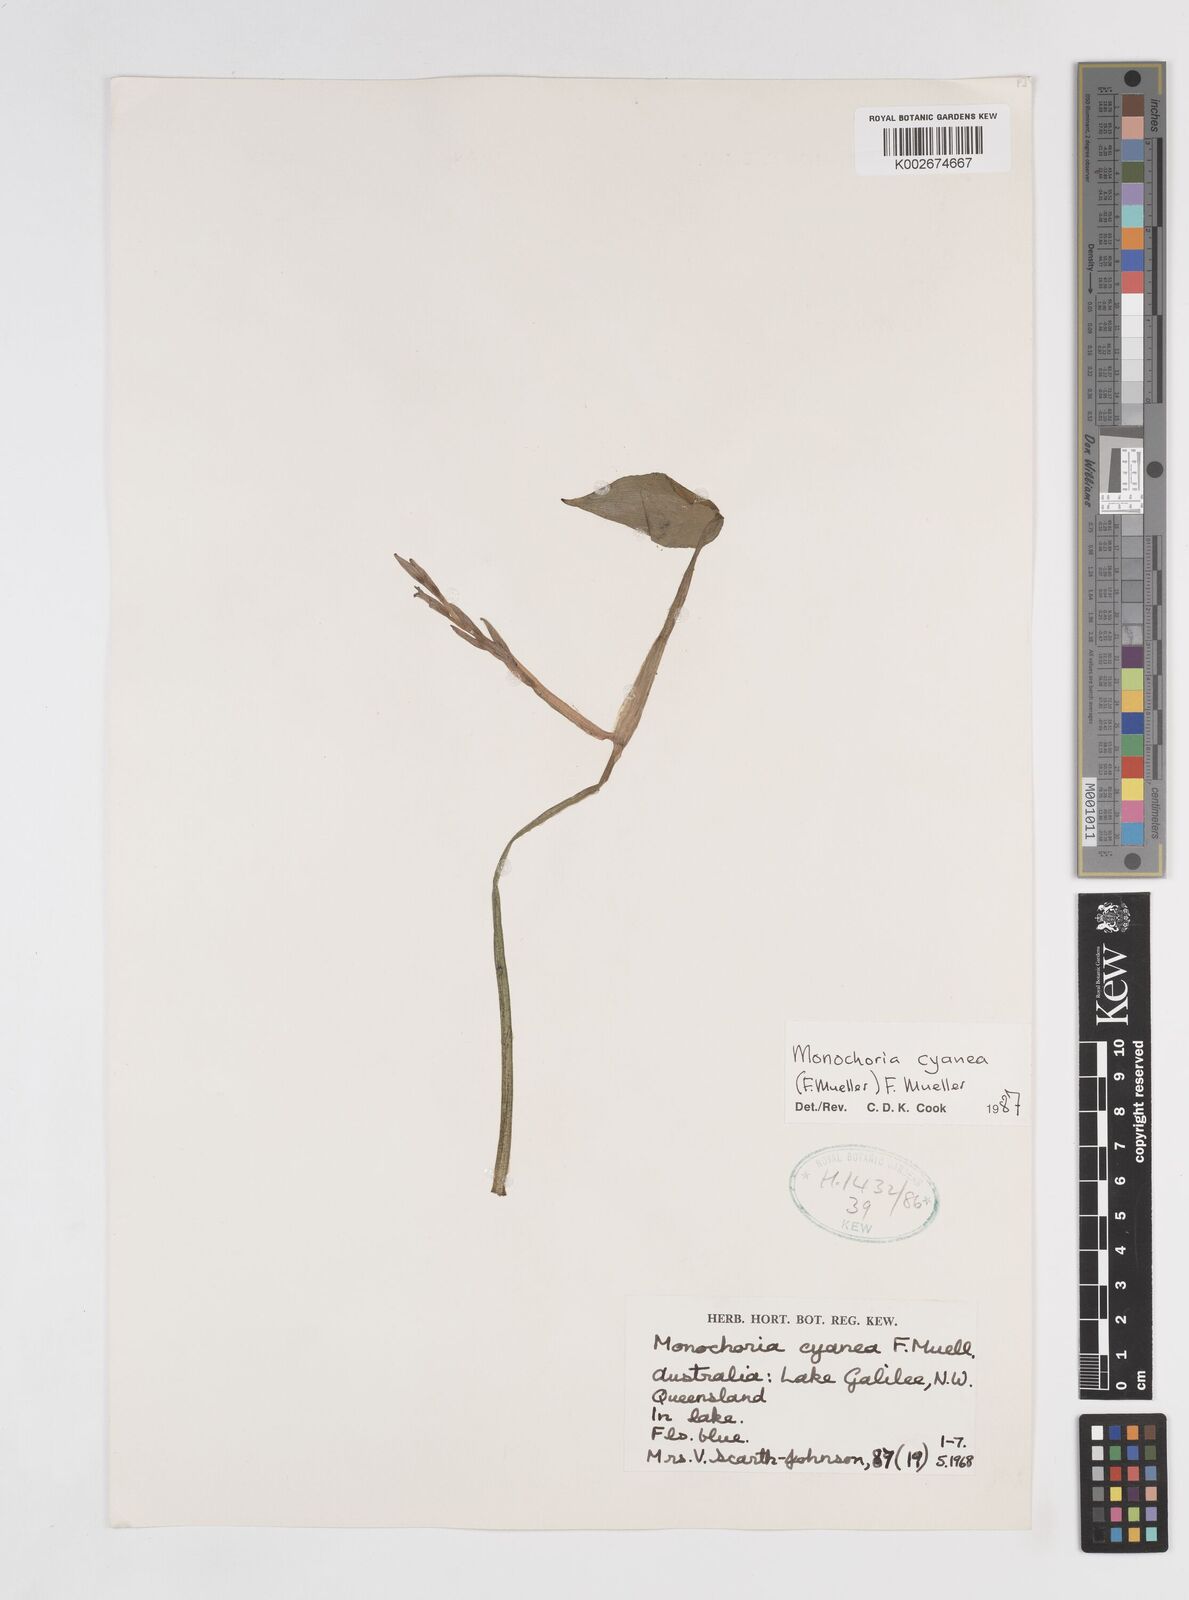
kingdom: Plantae
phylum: Tracheophyta
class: Liliopsida
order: Commelinales
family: Pontederiaceae
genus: Pontederia
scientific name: Pontederia cyanea
